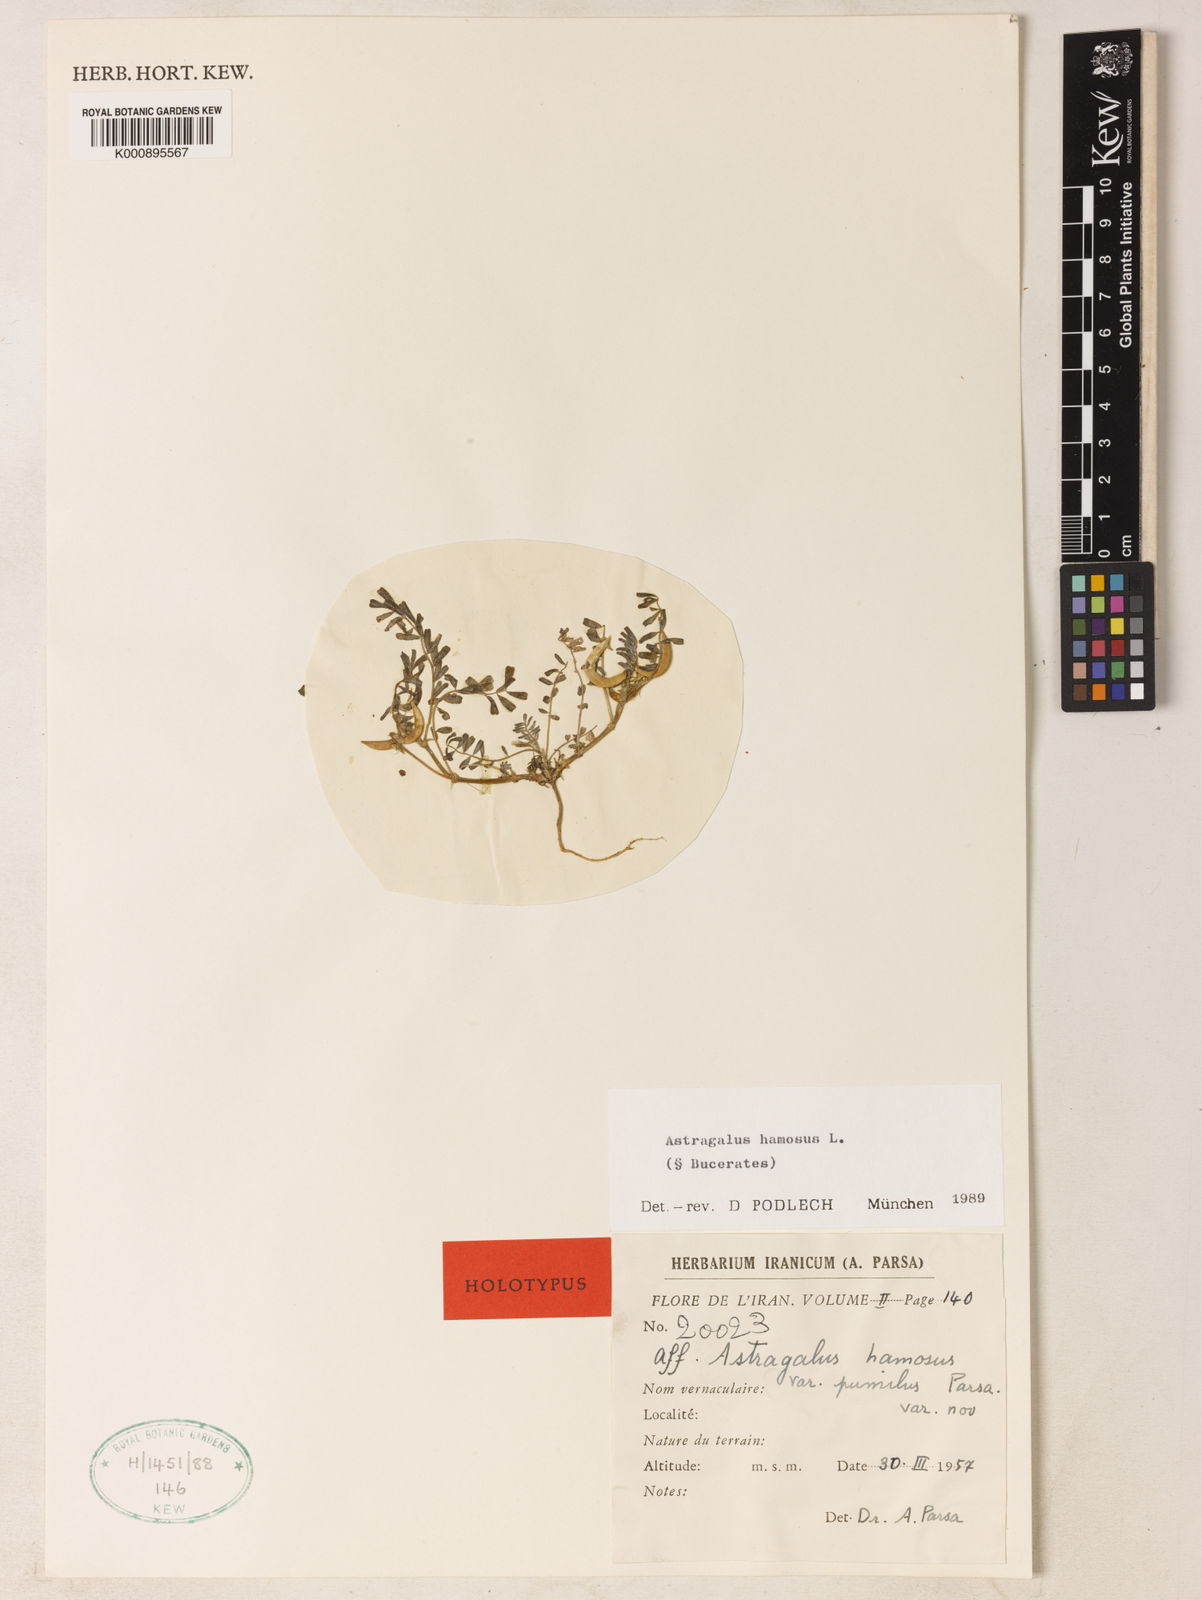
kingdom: Plantae
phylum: Tracheophyta
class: Magnoliopsida
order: Fabales
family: Fabaceae
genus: Astragalus
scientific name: Astragalus hamosus
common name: European milkvetch
